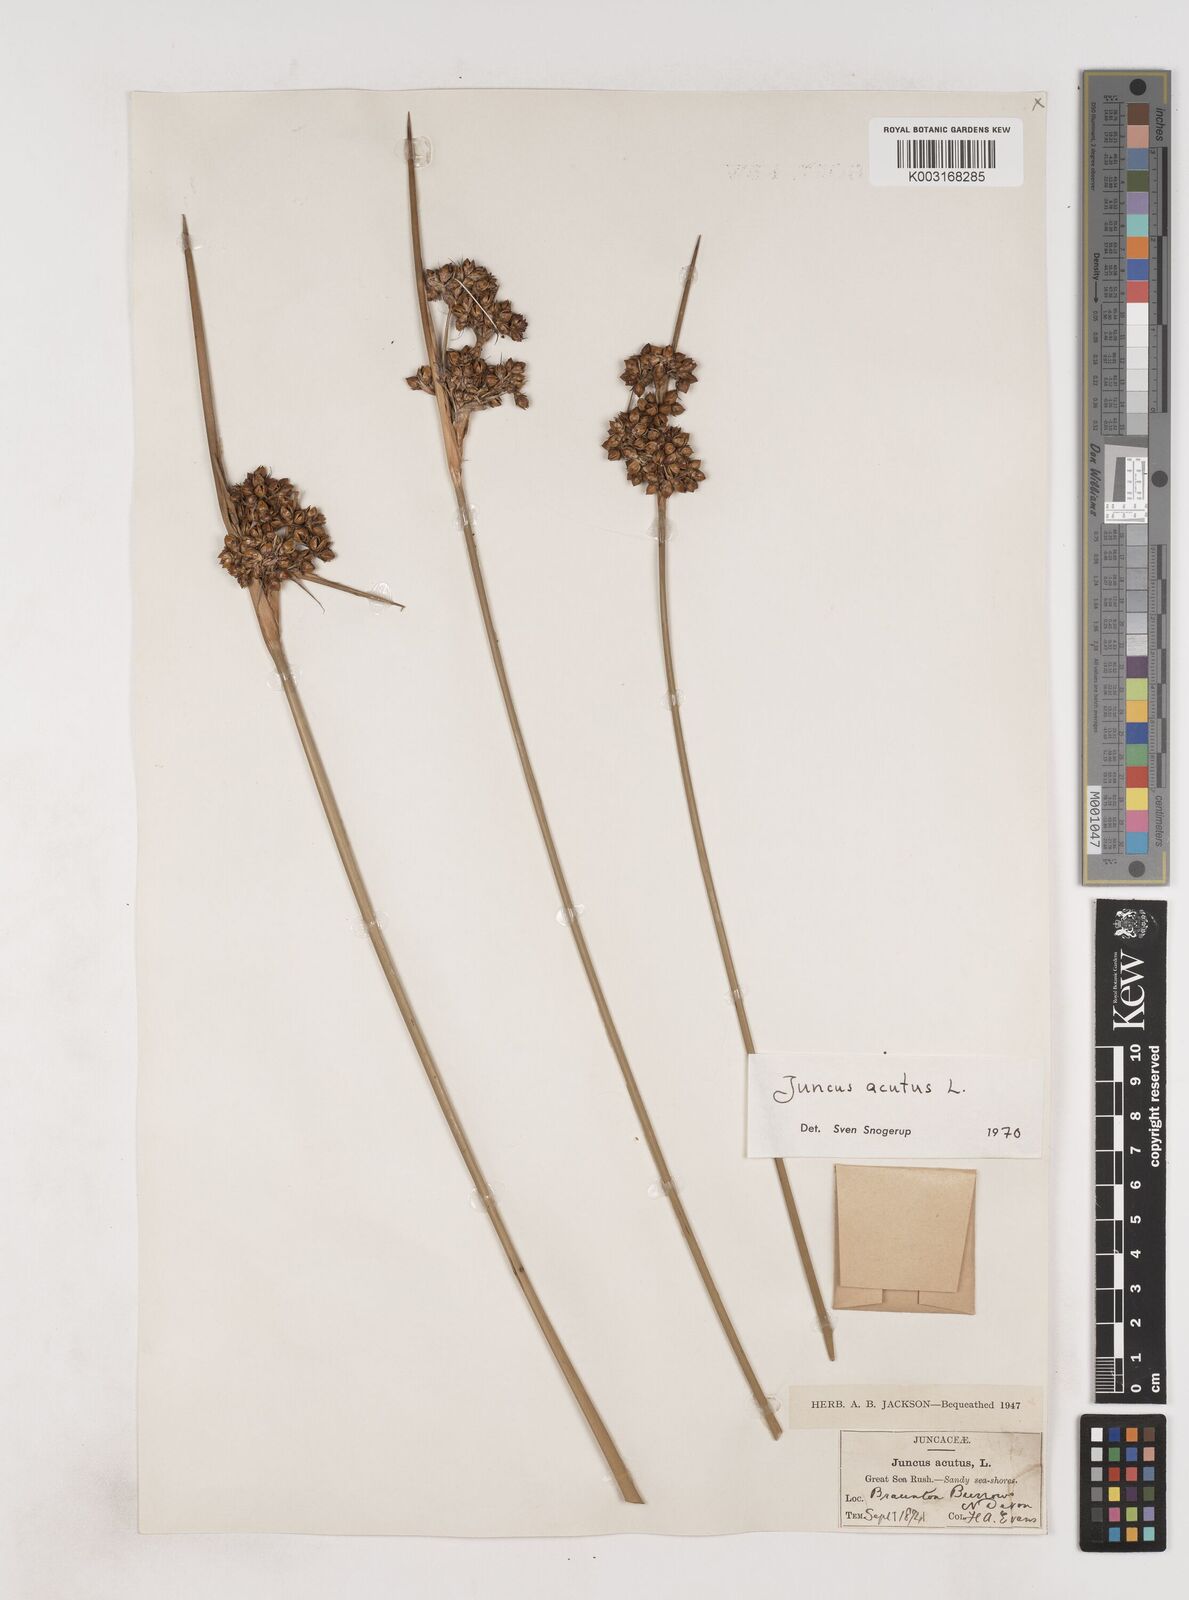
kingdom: Plantae
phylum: Tracheophyta
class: Liliopsida
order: Poales
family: Juncaceae
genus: Juncus
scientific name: Juncus acutus
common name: Sharp rush
